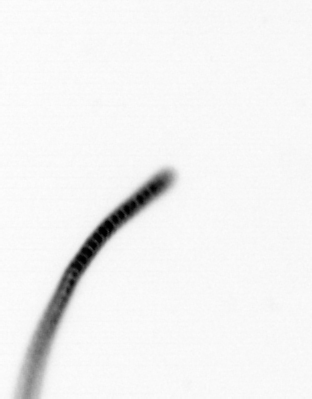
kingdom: Chromista
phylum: Ochrophyta
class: Bacillariophyceae
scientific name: Bacillariophyceae
